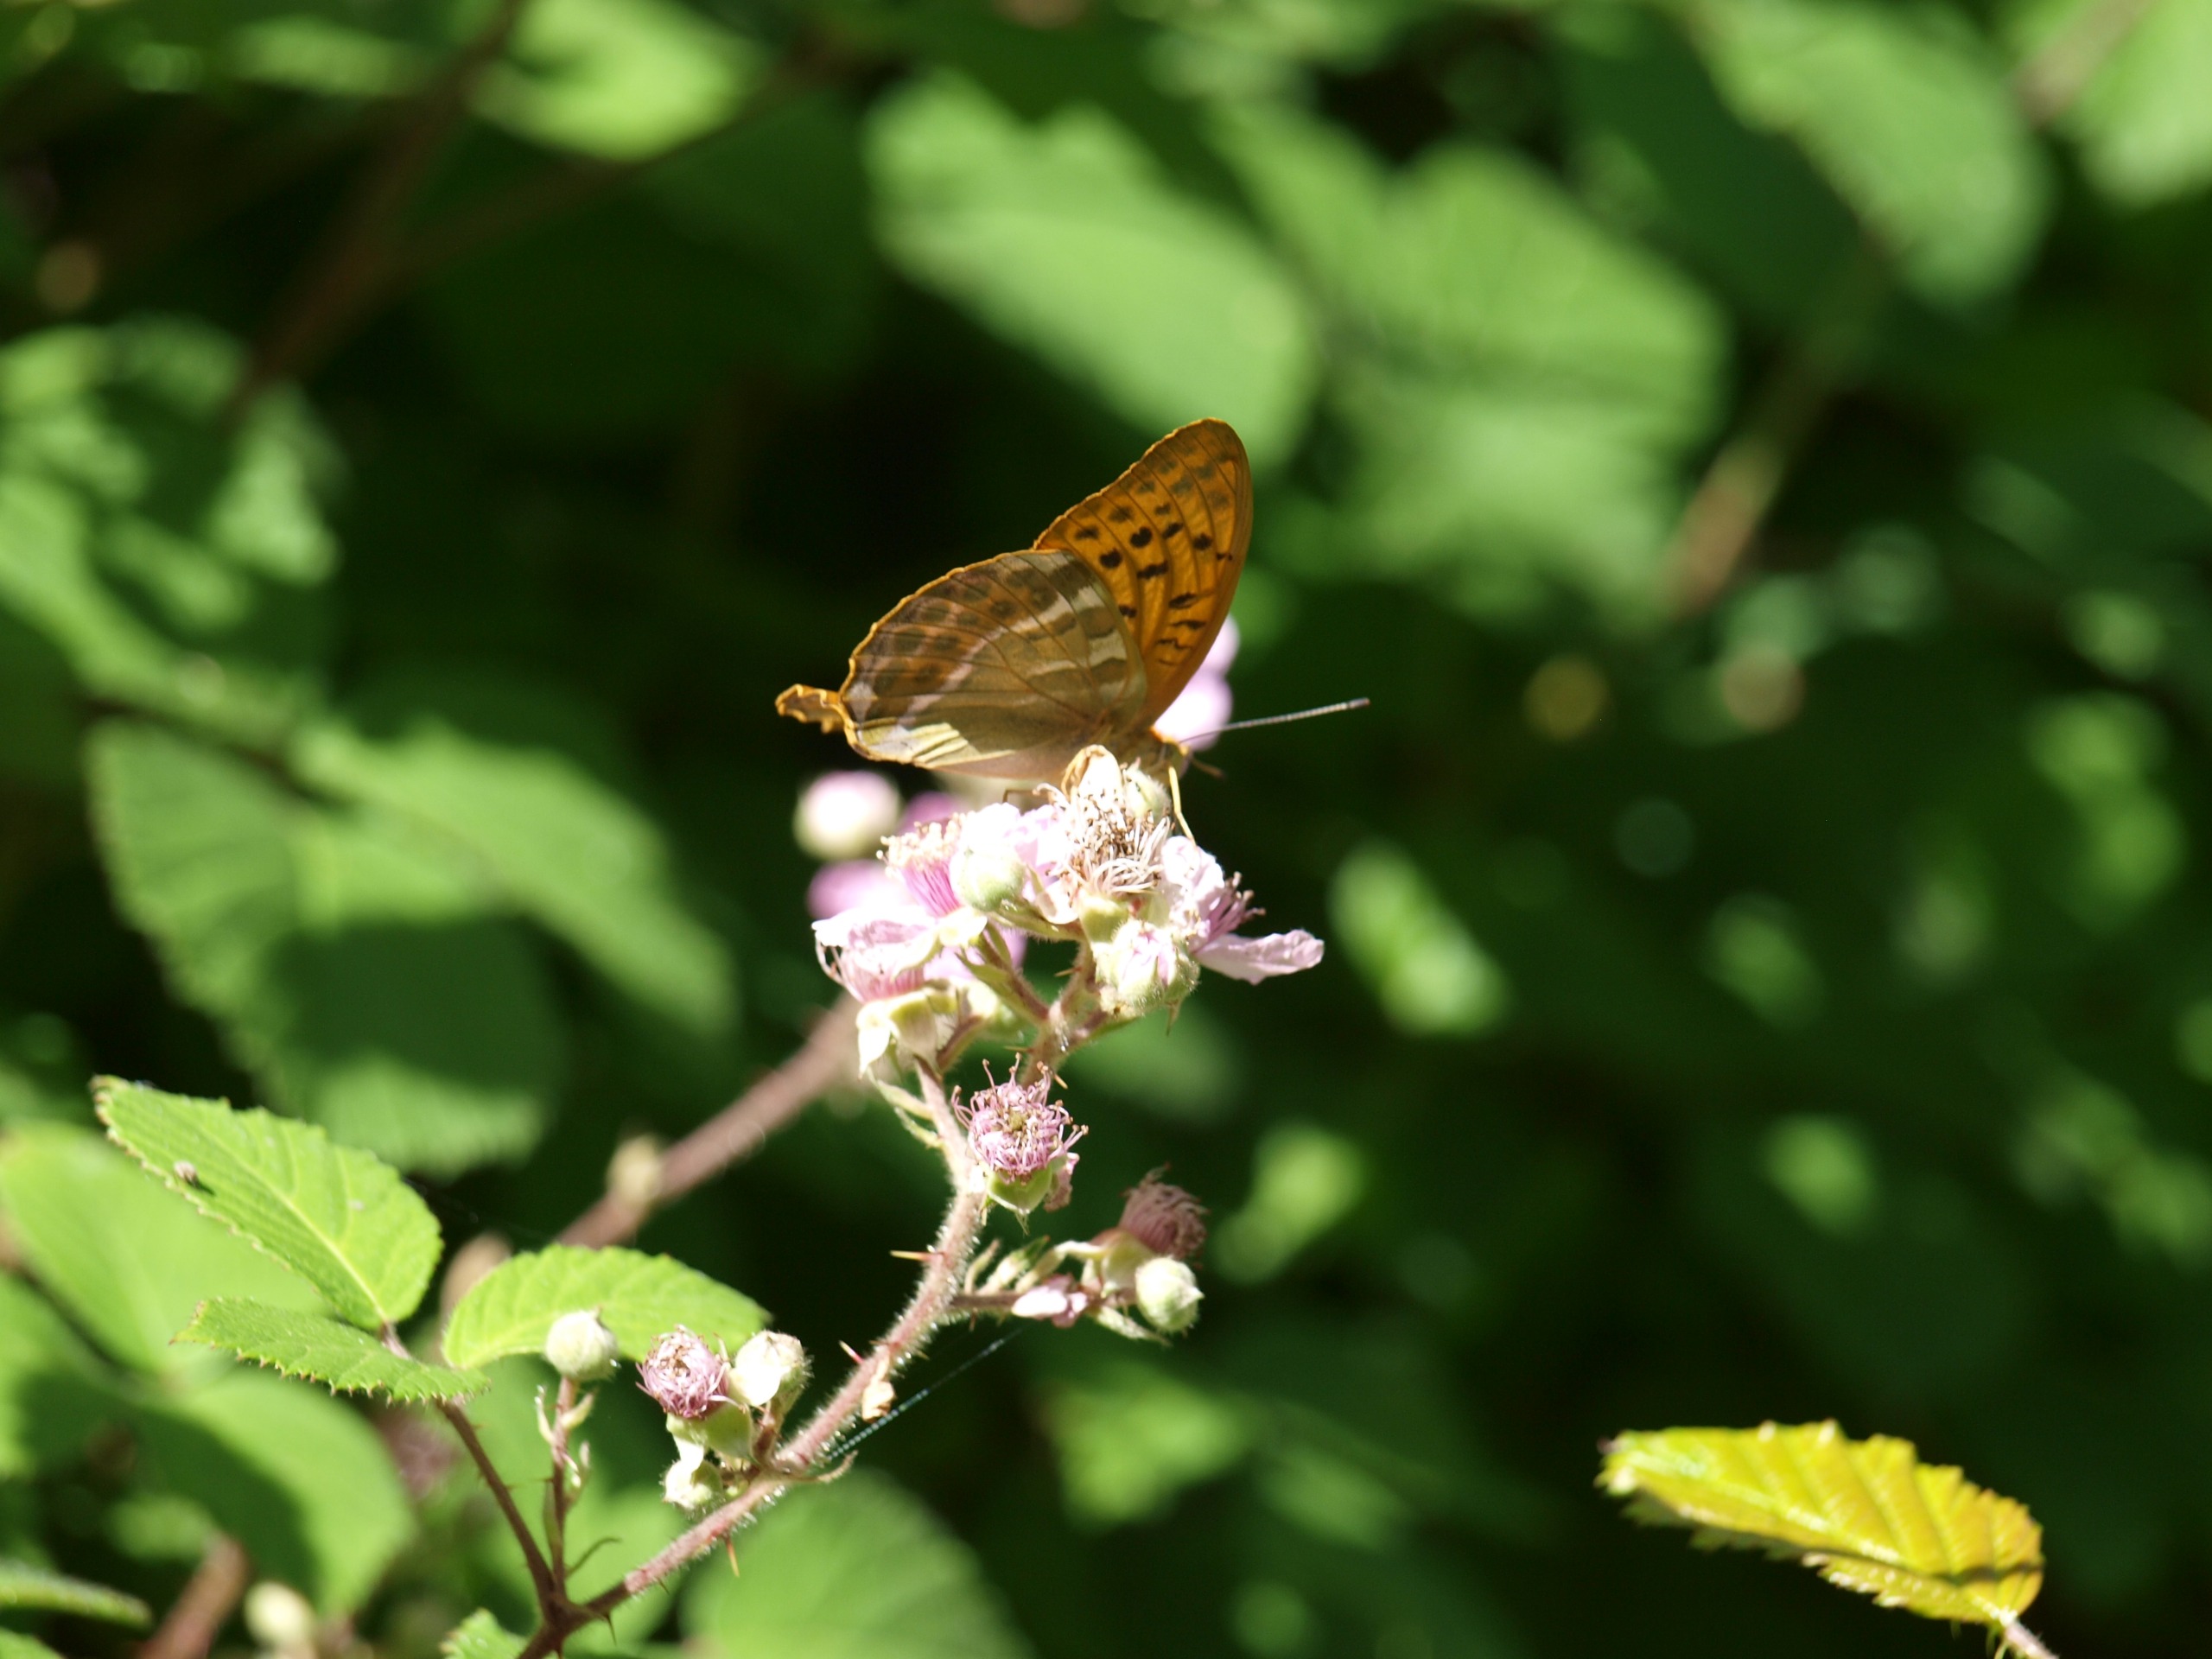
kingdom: Animalia
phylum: Arthropoda
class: Insecta
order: Lepidoptera
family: Nymphalidae
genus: Argynnis
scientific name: Argynnis paphia
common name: Kejserkåbe
